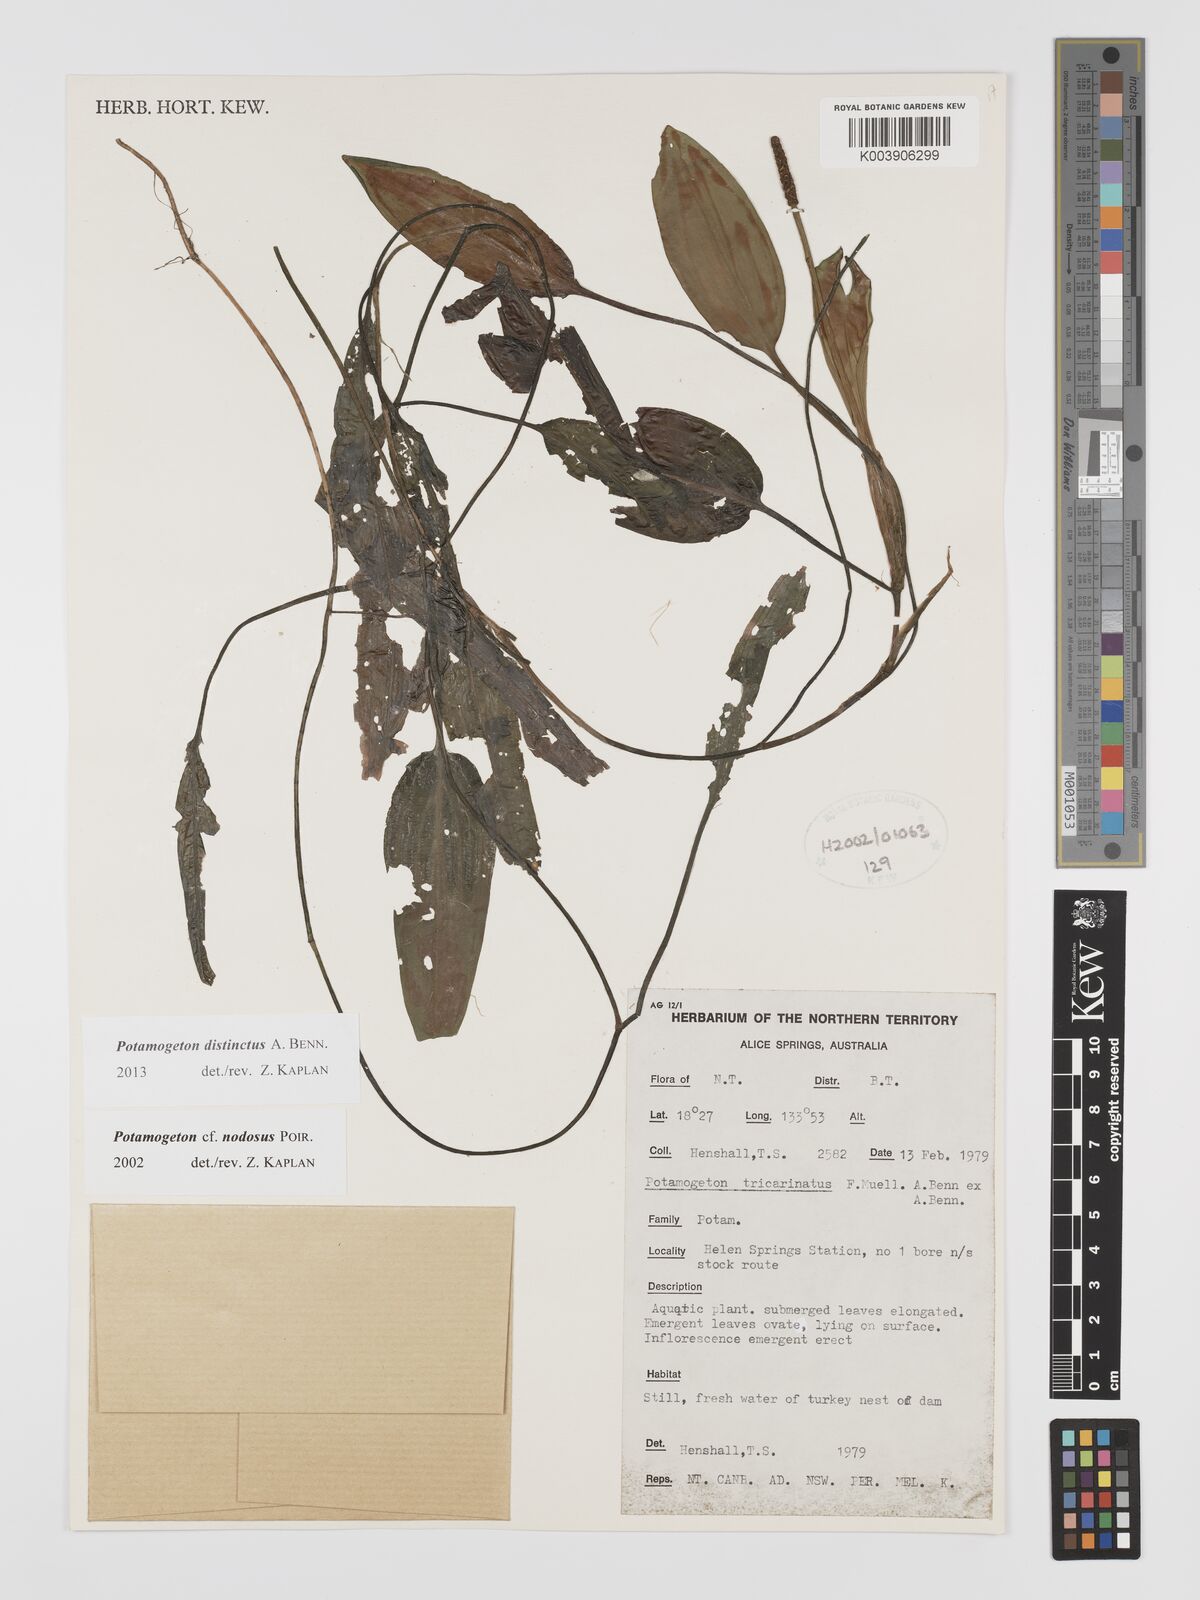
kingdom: Plantae
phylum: Tracheophyta
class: Liliopsida
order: Alismatales
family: Potamogetonaceae
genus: Potamogeton
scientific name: Potamogeton nodosus
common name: Loddon pondweed
